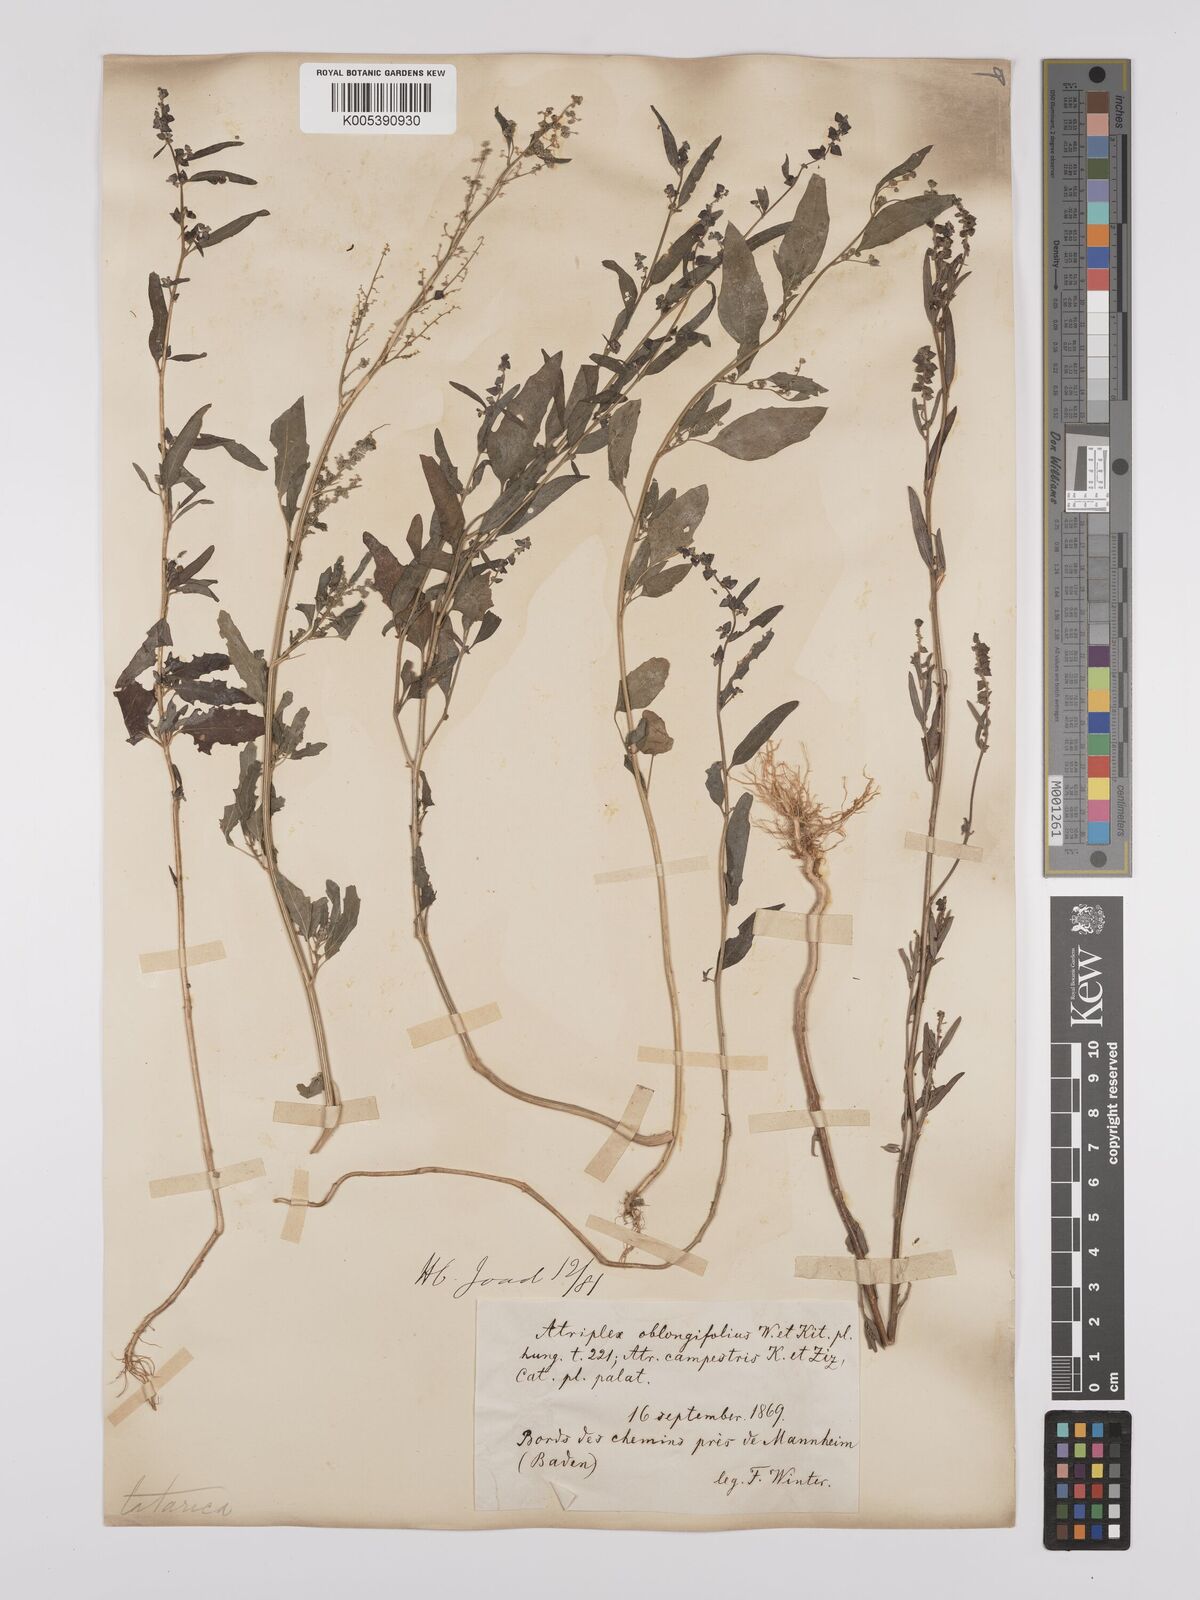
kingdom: Plantae
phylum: Tracheophyta
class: Magnoliopsida
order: Caryophyllales
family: Amaranthaceae
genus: Atriplex
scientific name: Atriplex
